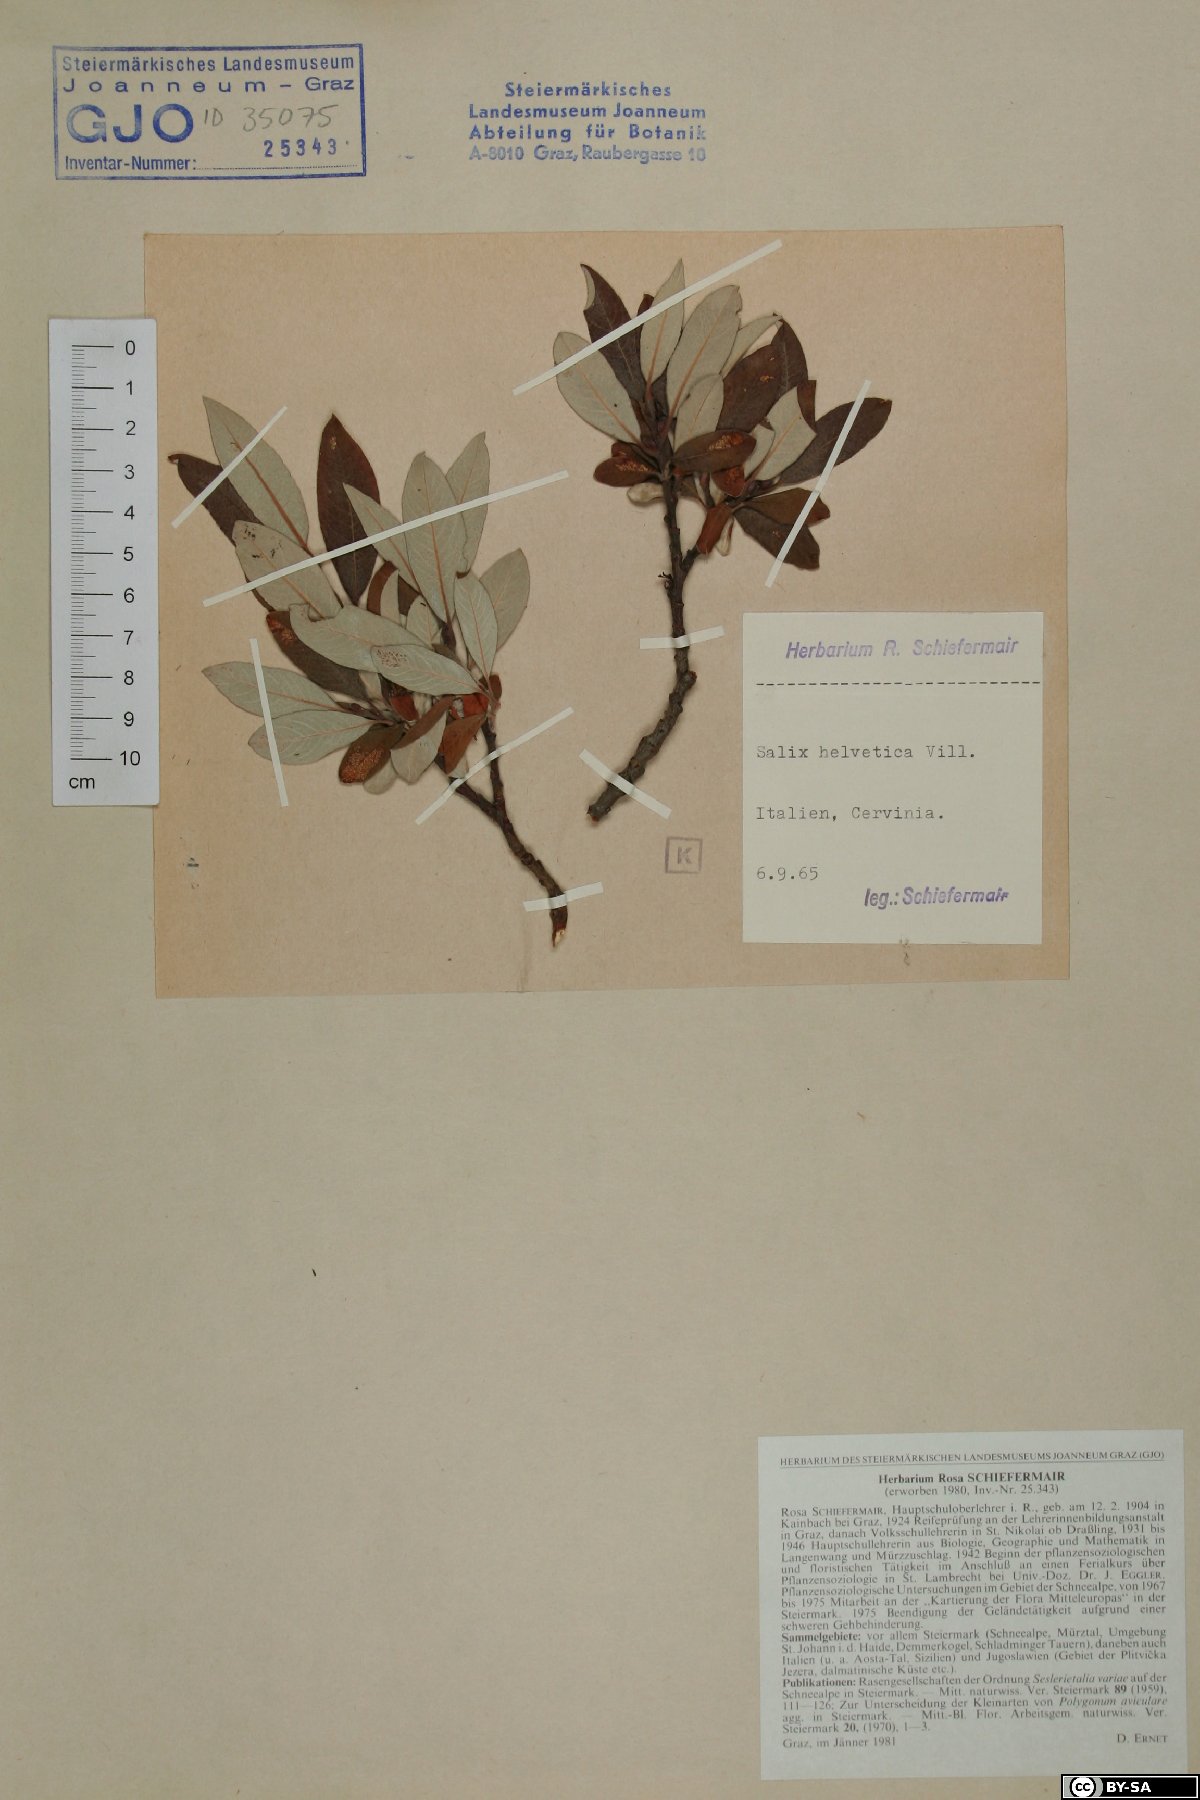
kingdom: Plantae
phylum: Tracheophyta
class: Magnoliopsida
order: Malpighiales
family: Salicaceae
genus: Salix
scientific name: Salix helvetica
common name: Swiss willow
